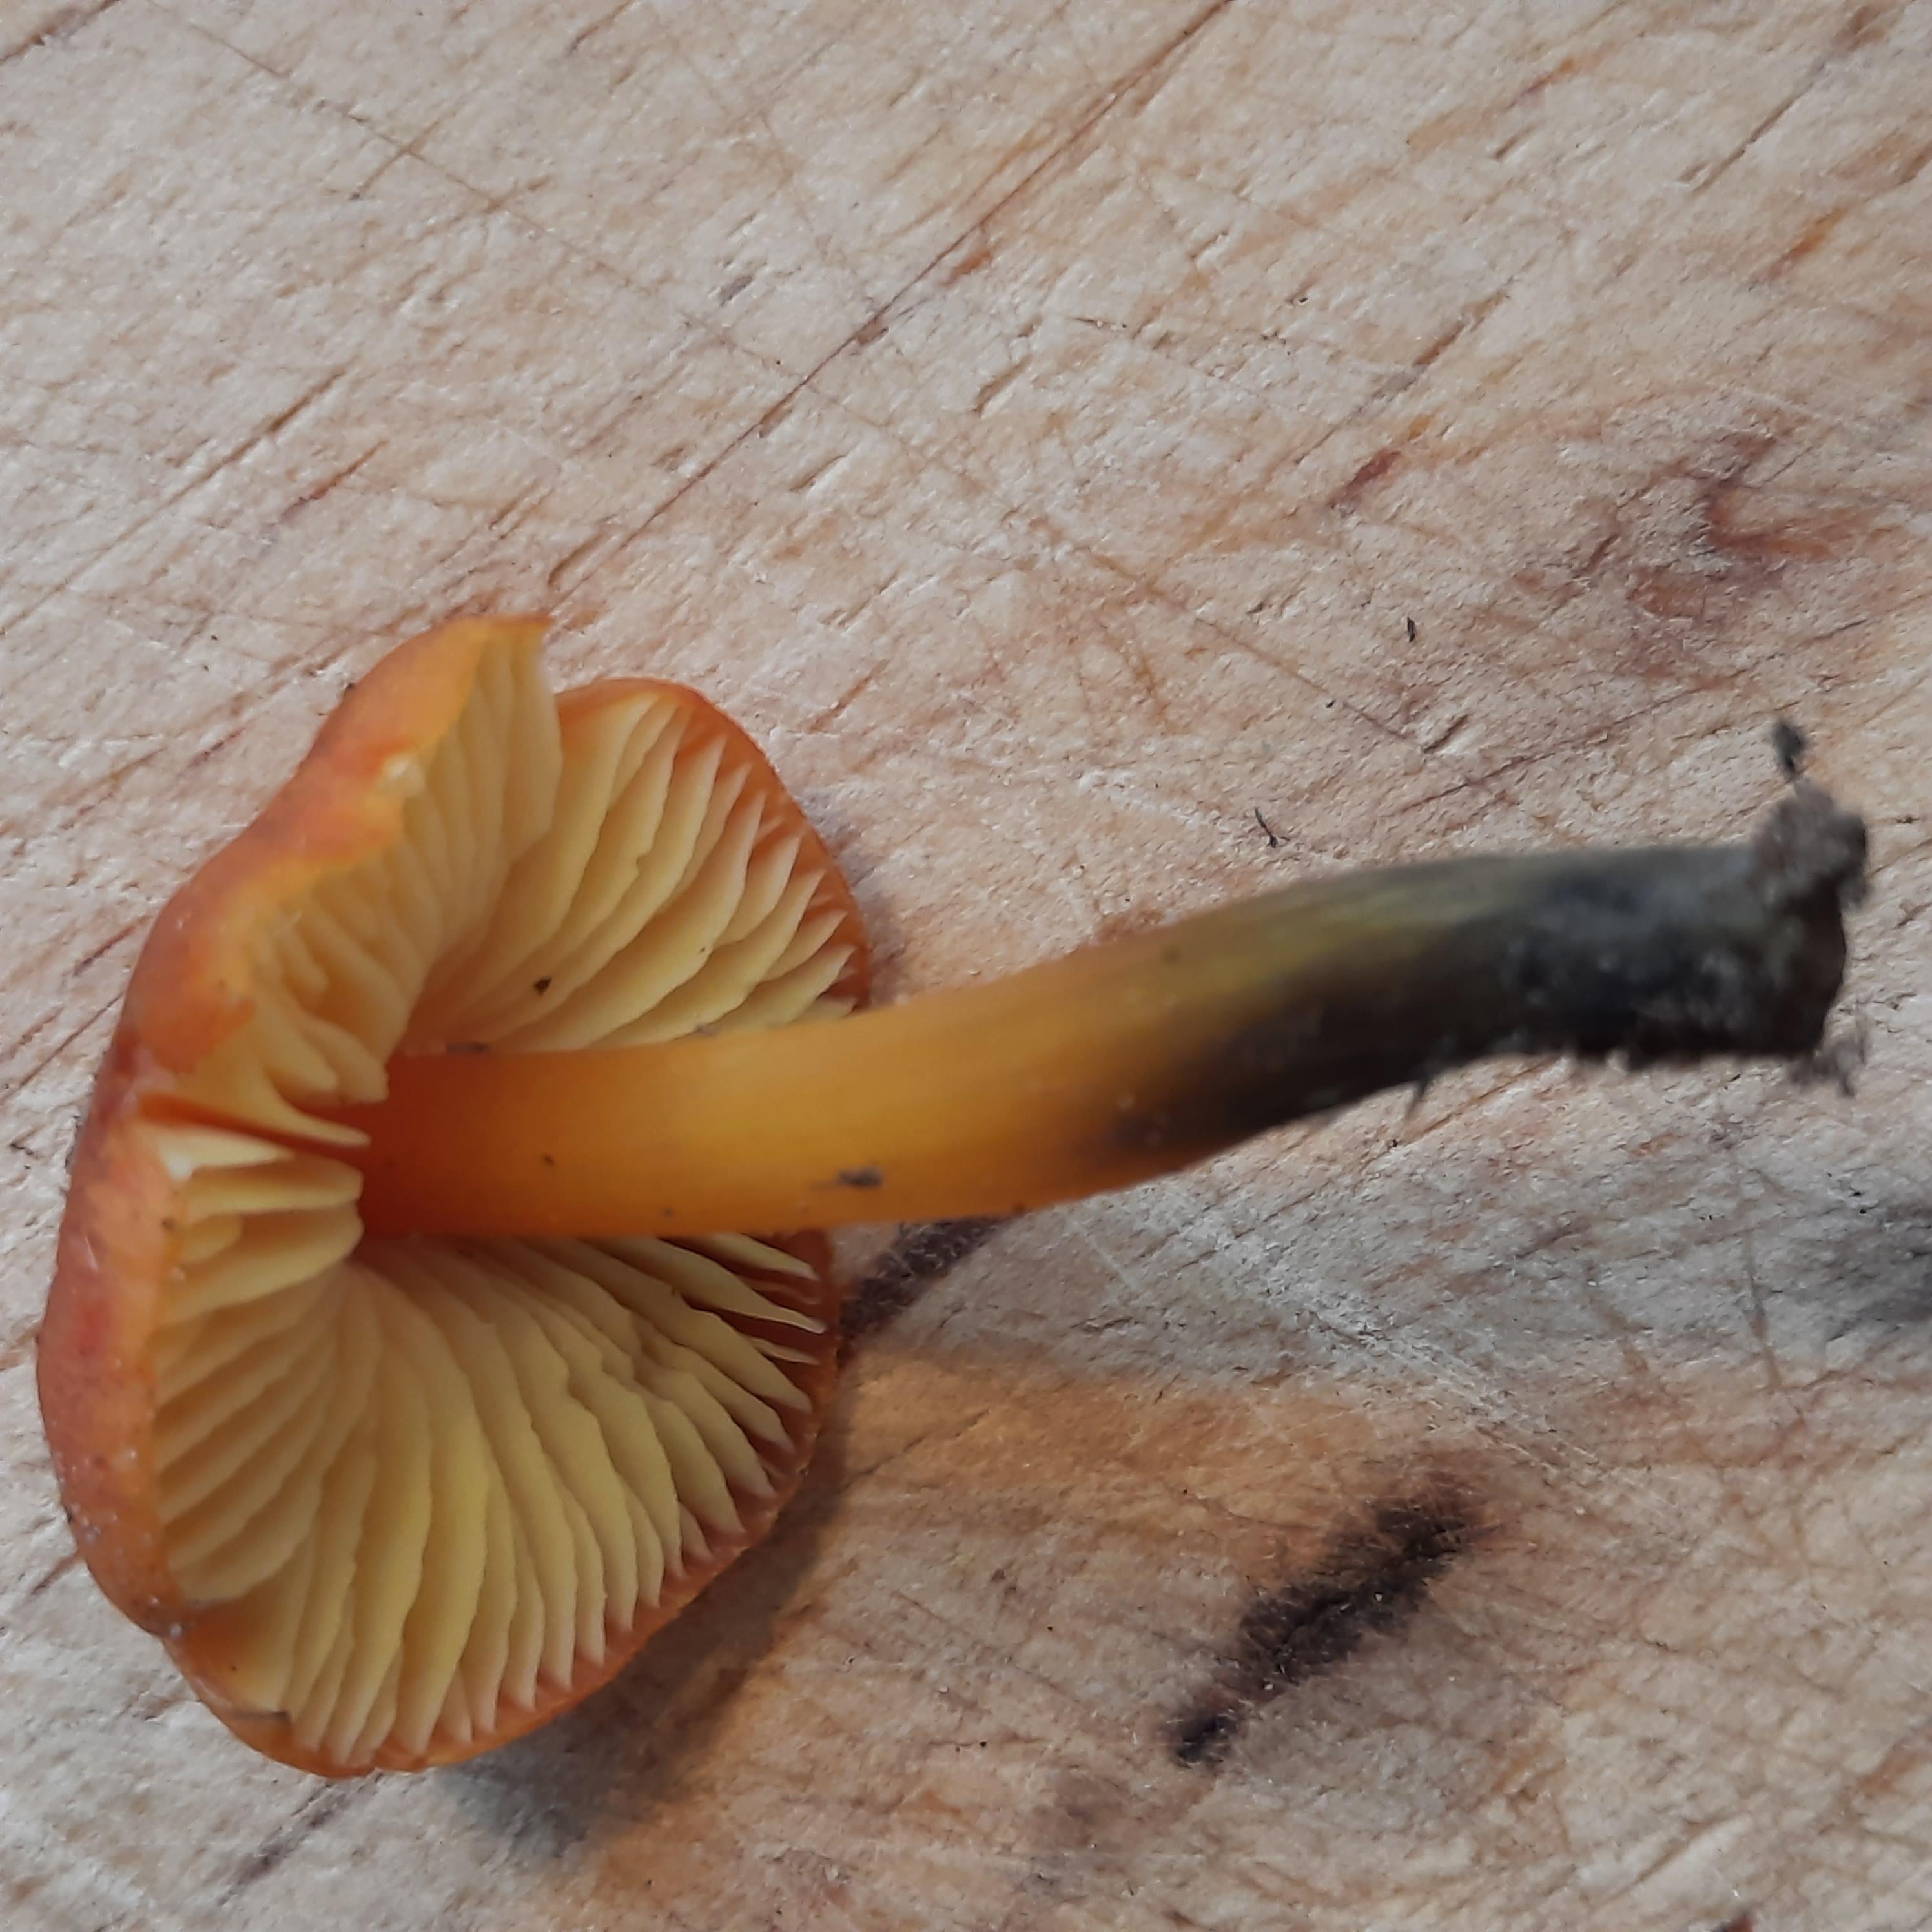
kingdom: Fungi
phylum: Basidiomycota
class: Agaricomycetes
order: Agaricales
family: Hygrophoraceae
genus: Hygrocybe
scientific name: Hygrocybe conica
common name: kegle-vokshat
